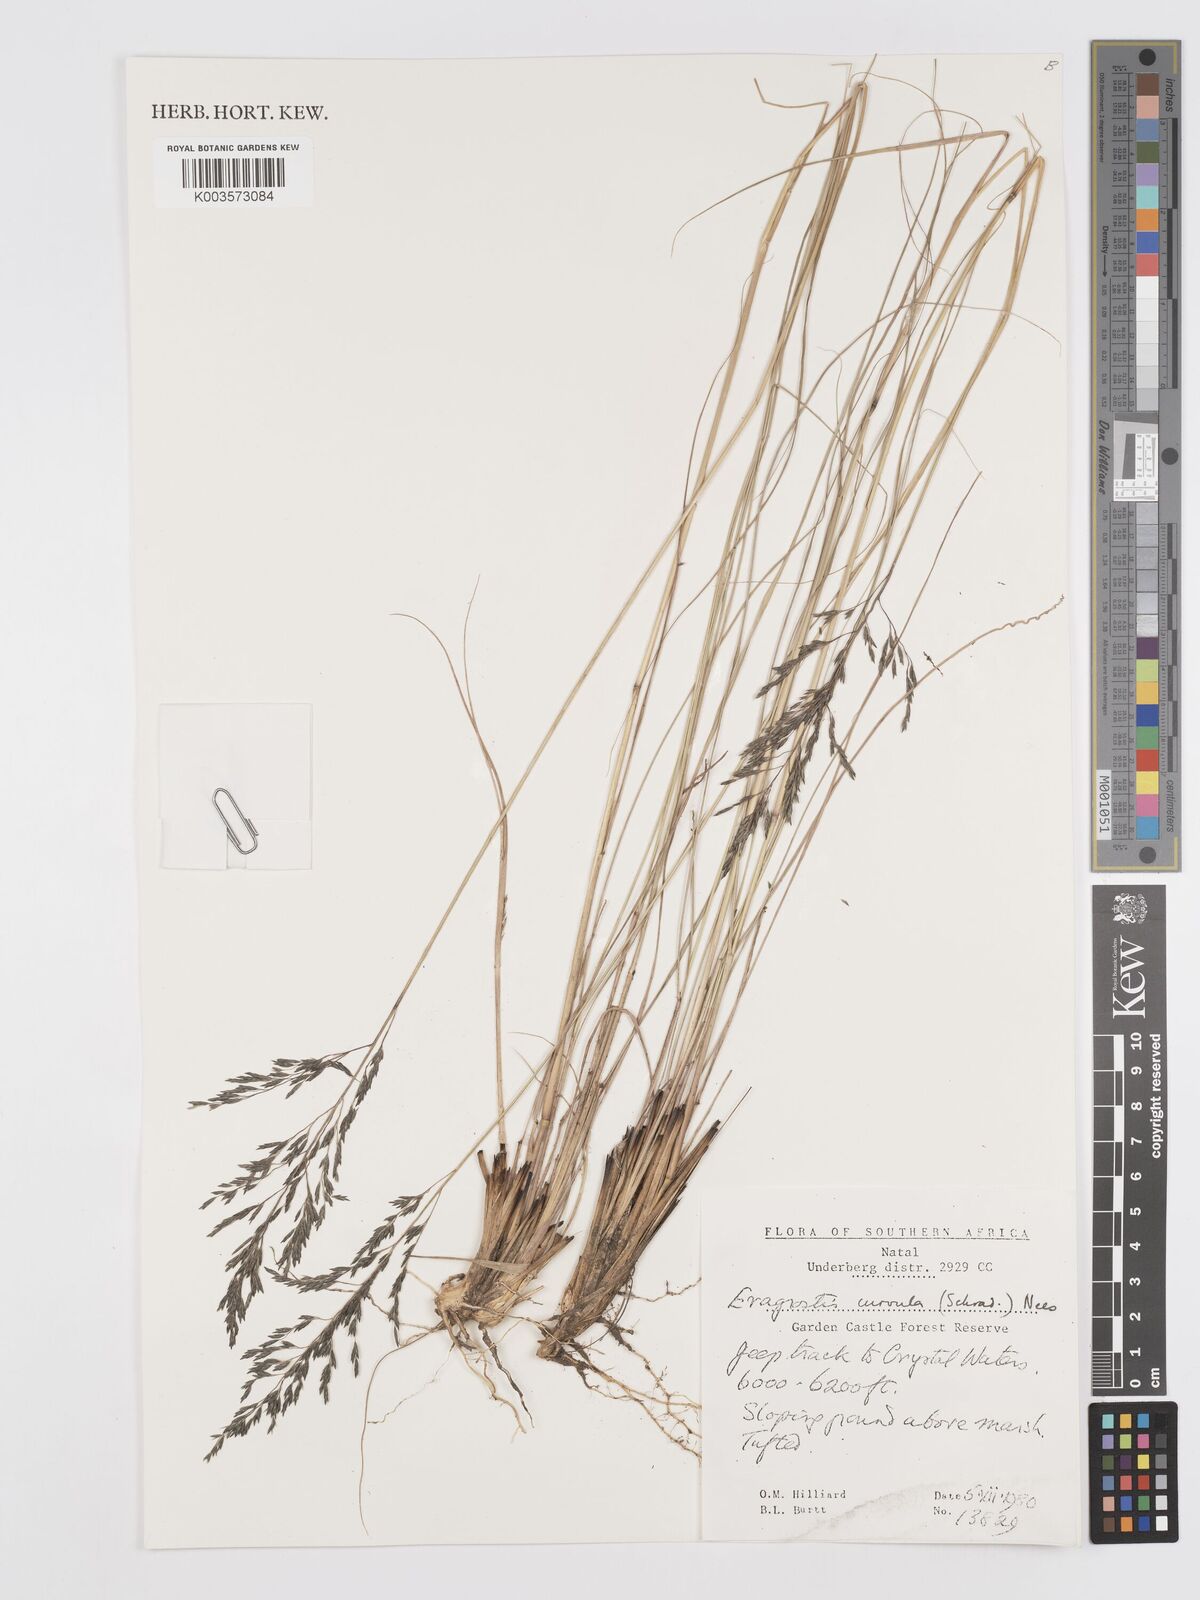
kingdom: Plantae
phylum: Tracheophyta
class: Liliopsida
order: Poales
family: Poaceae
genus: Eragrostis
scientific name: Eragrostis curvula
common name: African love-grass
